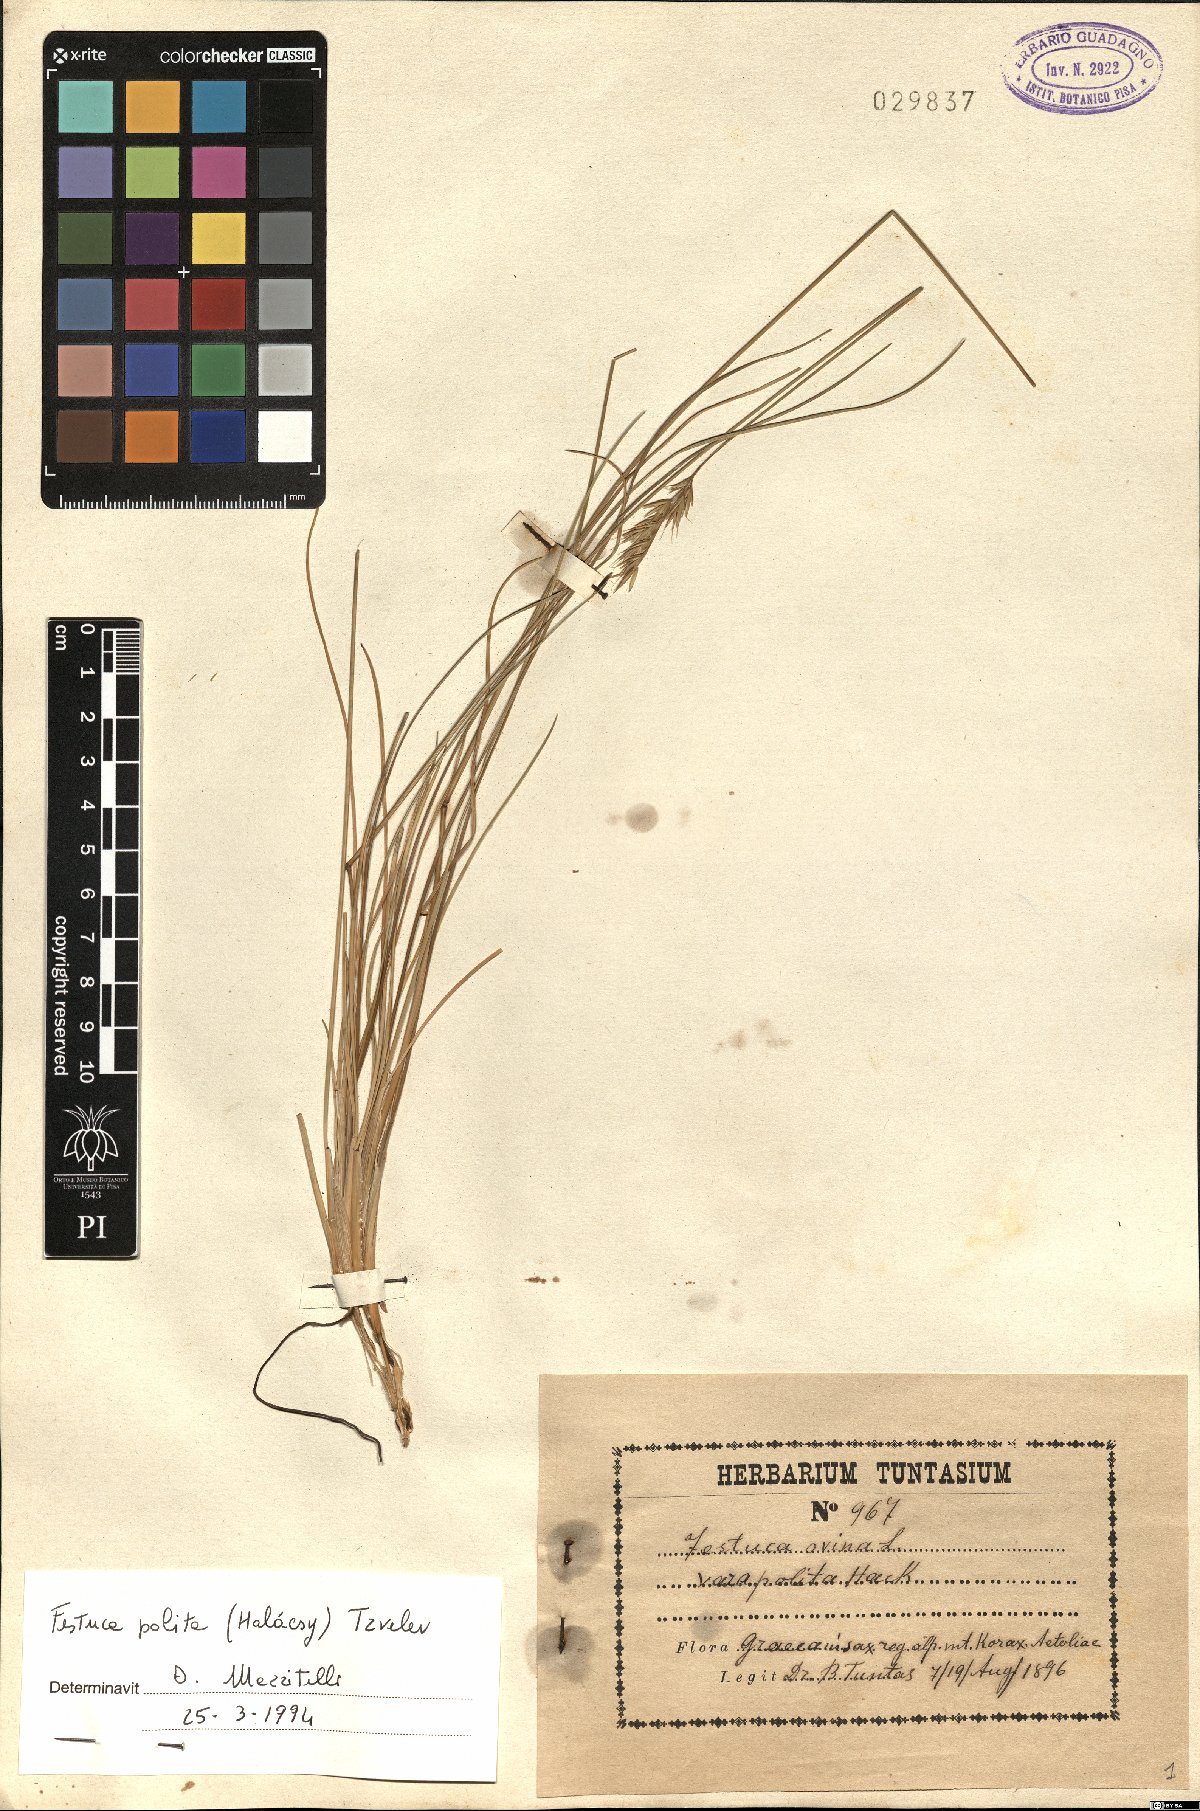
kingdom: Plantae
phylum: Tracheophyta
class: Liliopsida
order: Poales
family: Poaceae
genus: Festuca
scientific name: Festuca polita
